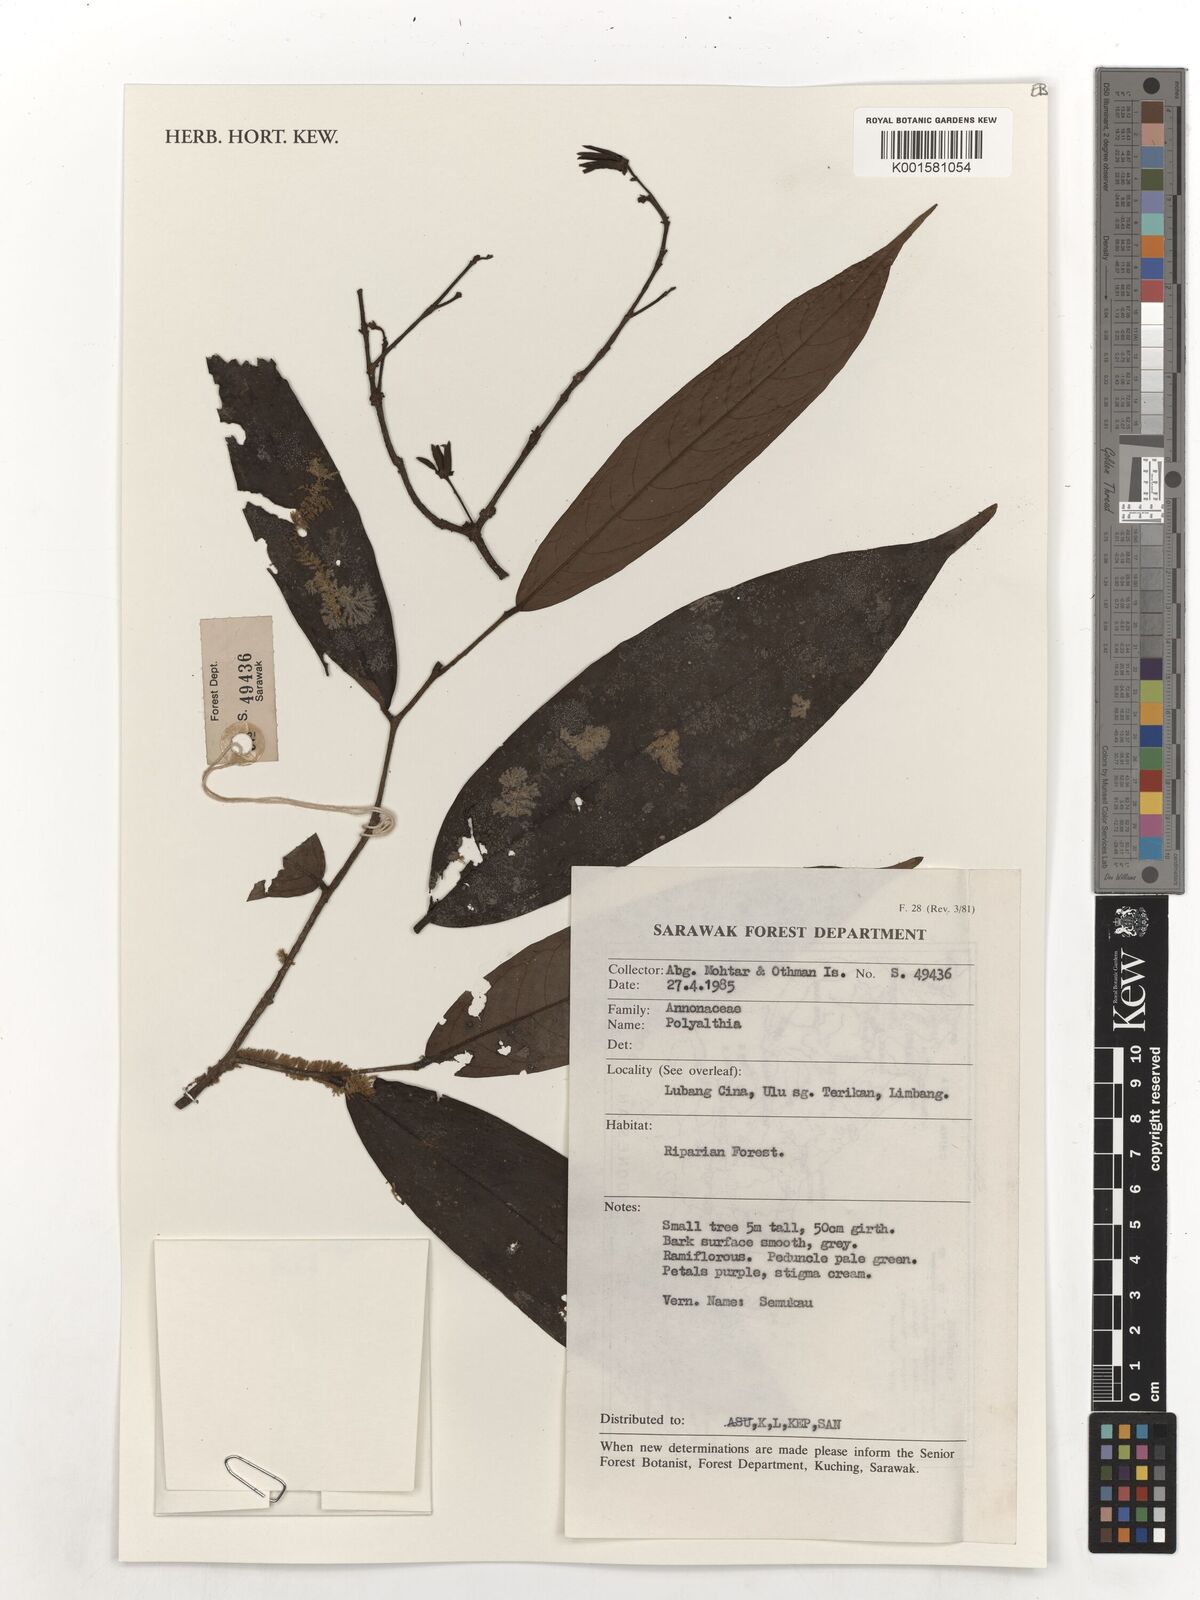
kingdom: Plantae
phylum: Tracheophyta
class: Magnoliopsida
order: Magnoliales
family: Annonaceae
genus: Polyalthia
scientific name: Polyalthia
